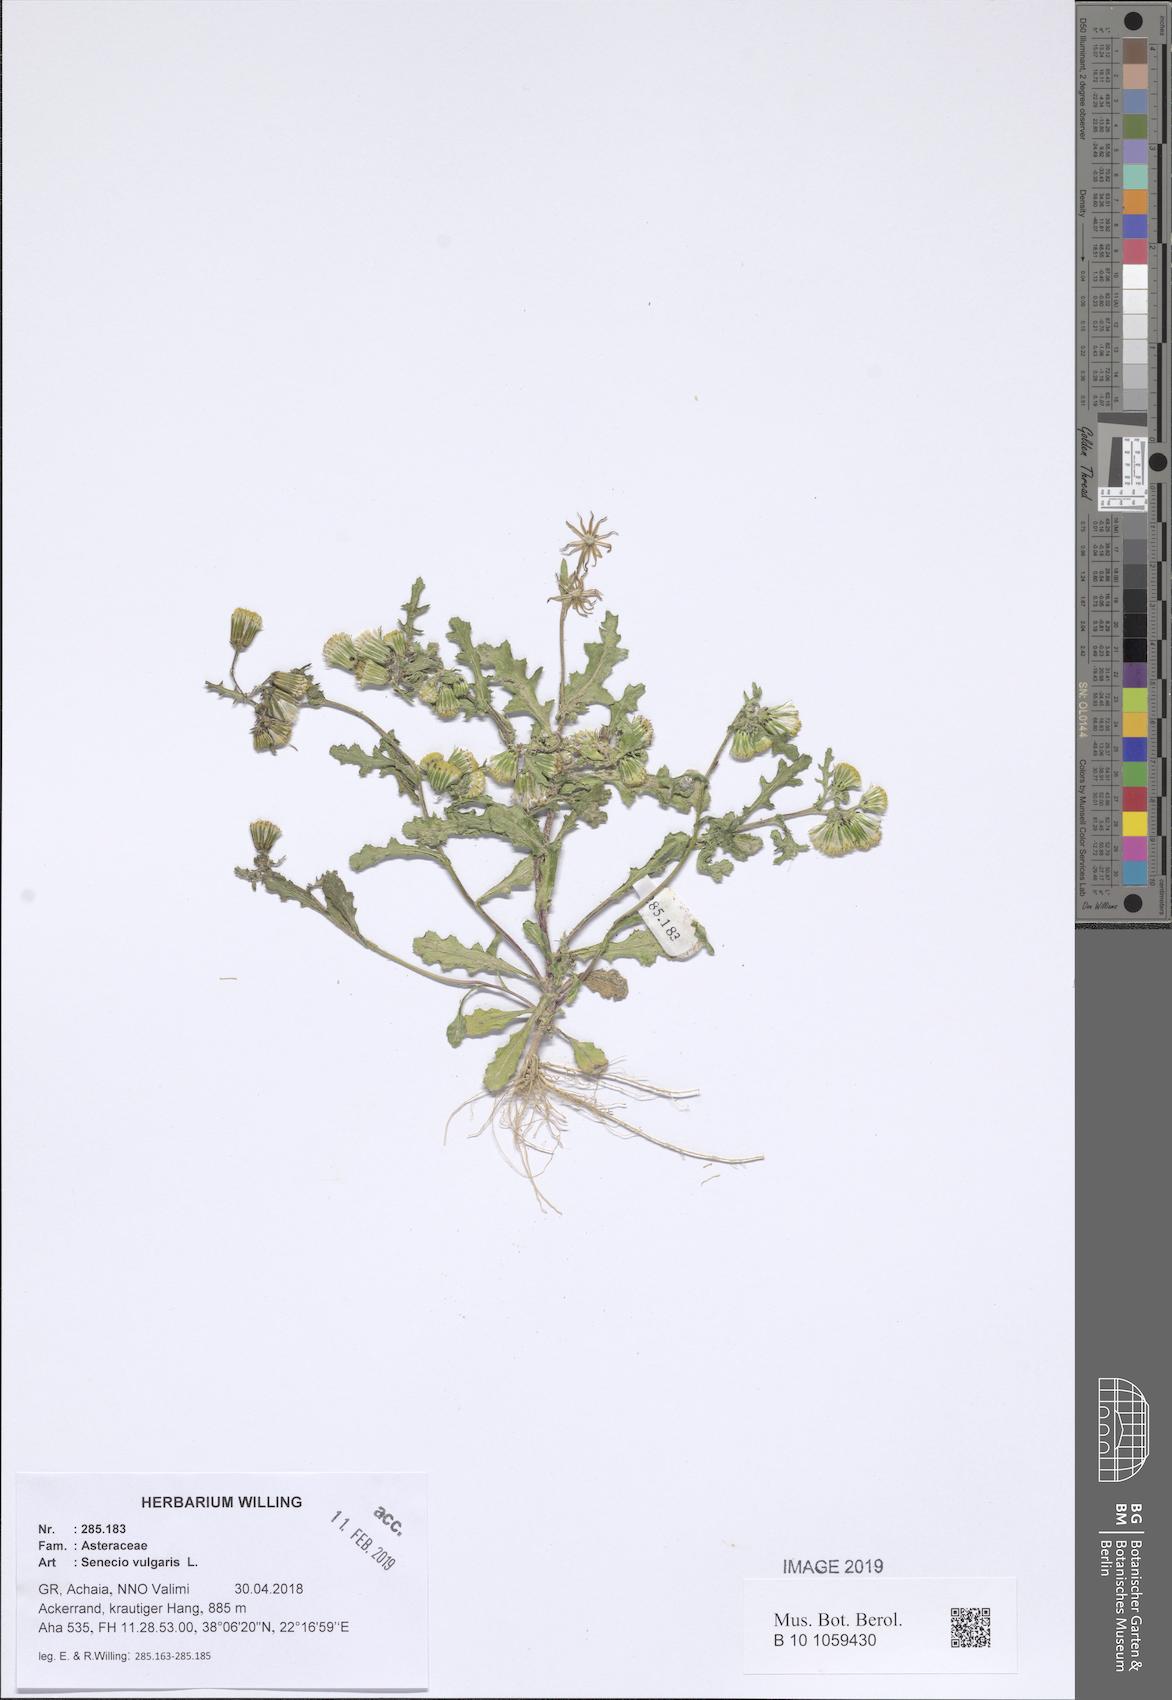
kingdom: Plantae
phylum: Tracheophyta
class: Magnoliopsida
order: Asterales
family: Asteraceae
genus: Senecio
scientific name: Senecio vulgaris
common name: Old-man-in-the-spring
